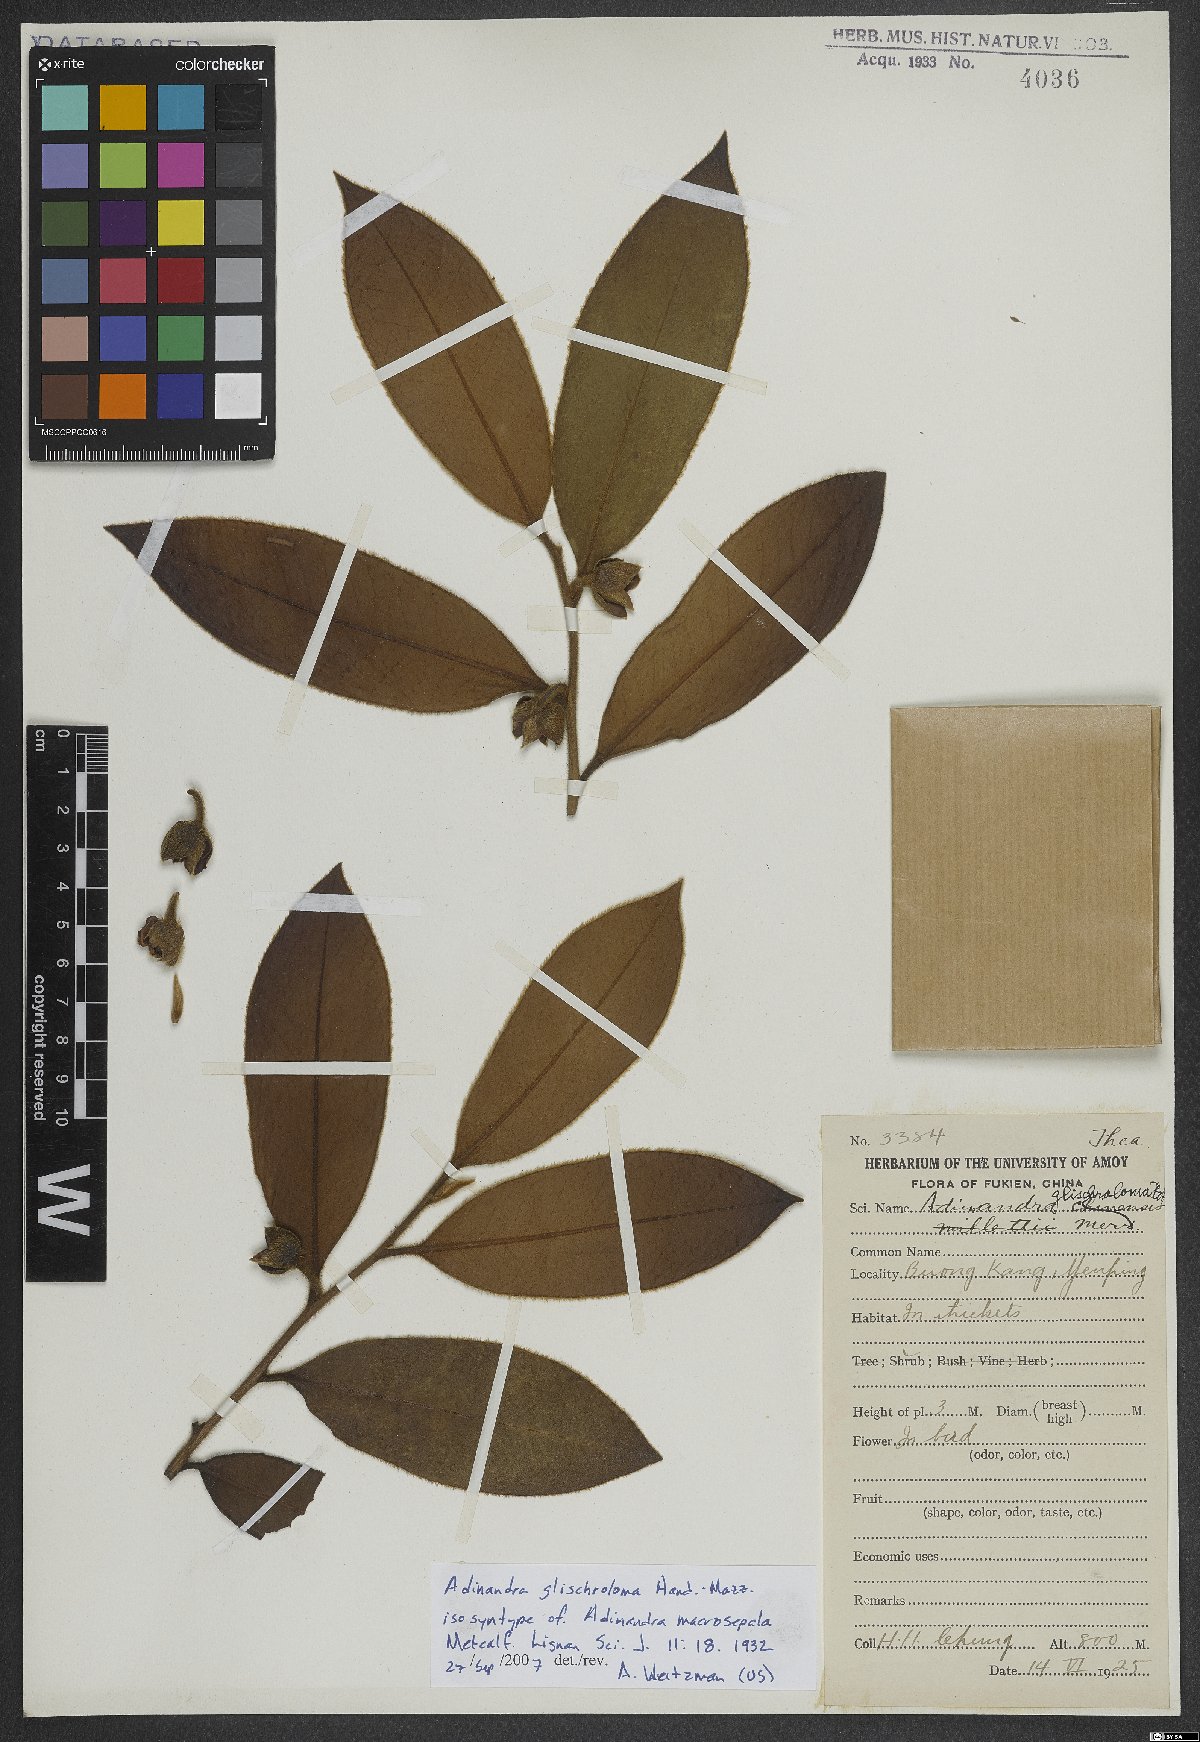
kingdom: Plantae
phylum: Tracheophyta
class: Magnoliopsida
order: Ericales
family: Pentaphylacaceae
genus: Adinandra
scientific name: Adinandra glischroloma
